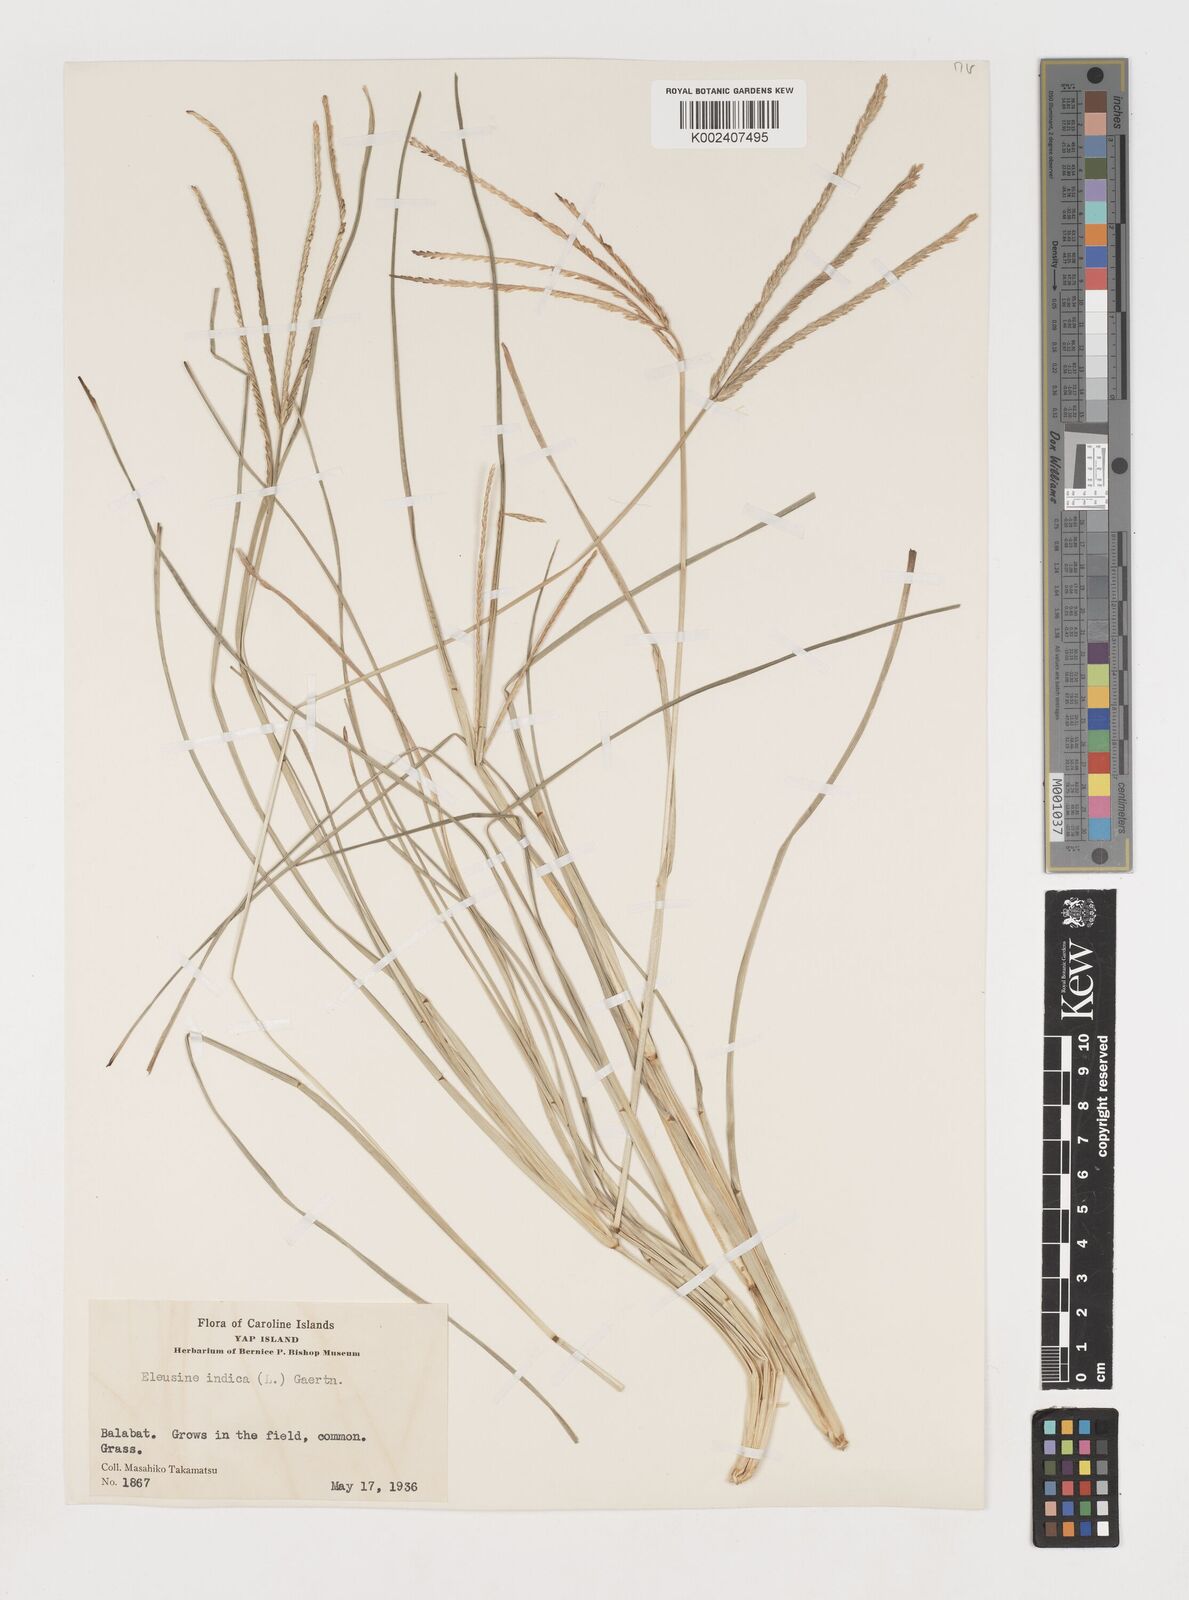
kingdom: Plantae
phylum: Tracheophyta
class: Liliopsida
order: Poales
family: Poaceae
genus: Eleusine
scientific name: Eleusine indica
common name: Yard-grass
